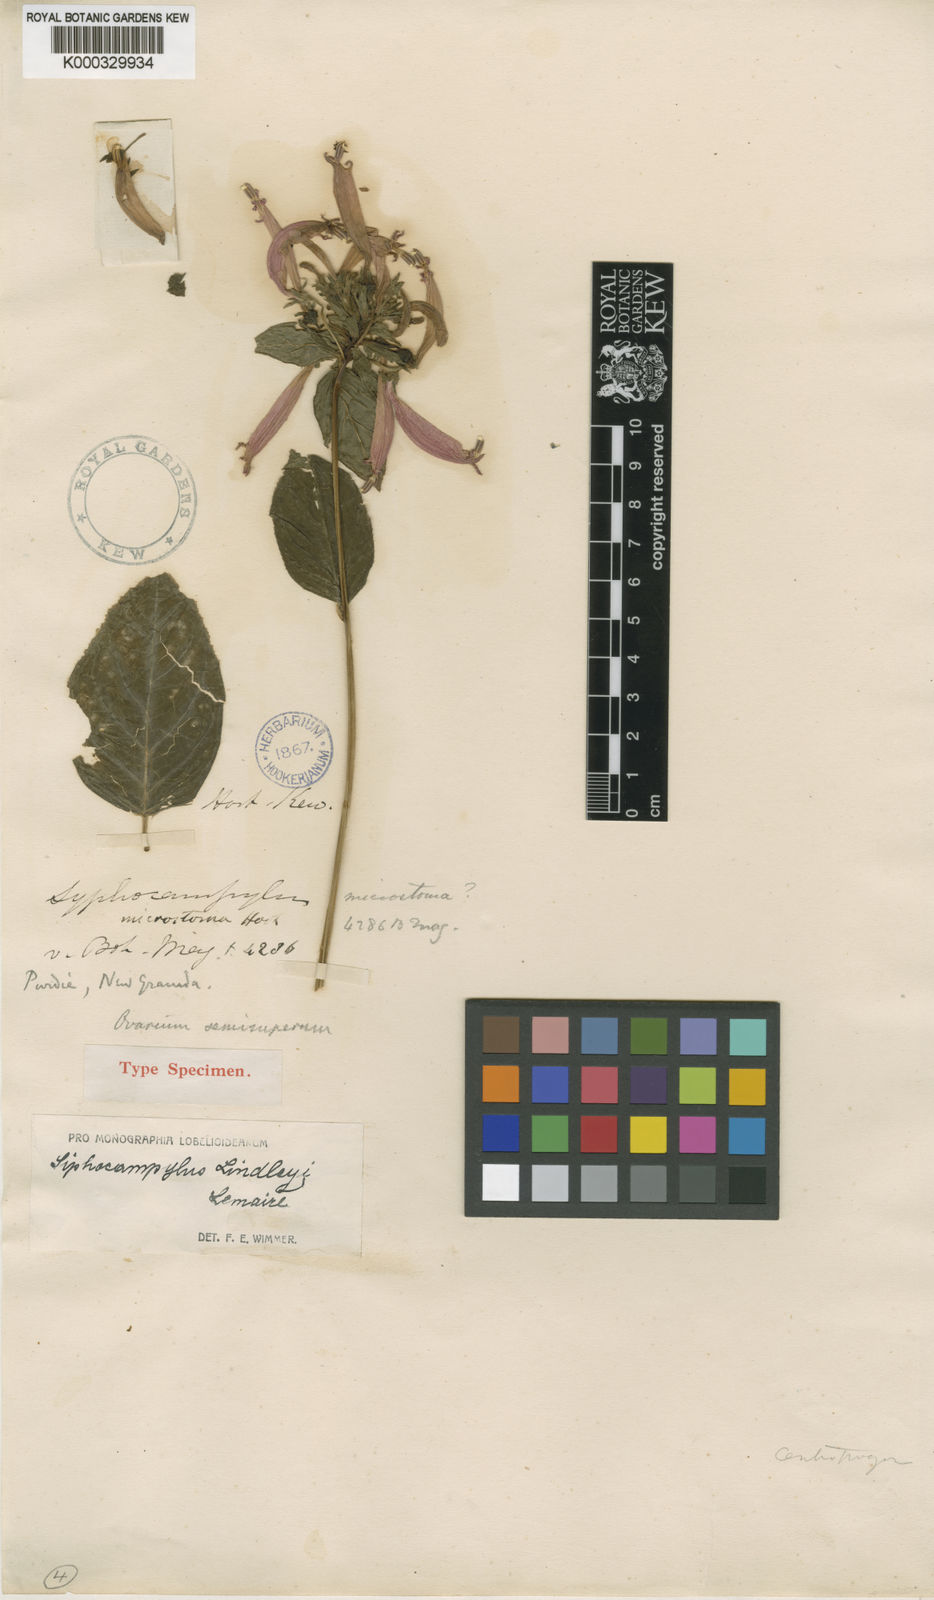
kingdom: Plantae
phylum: Tracheophyta
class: Magnoliopsida
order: Asterales
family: Campanulaceae
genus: Siphocampylus
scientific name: Siphocampylus lindleyi
